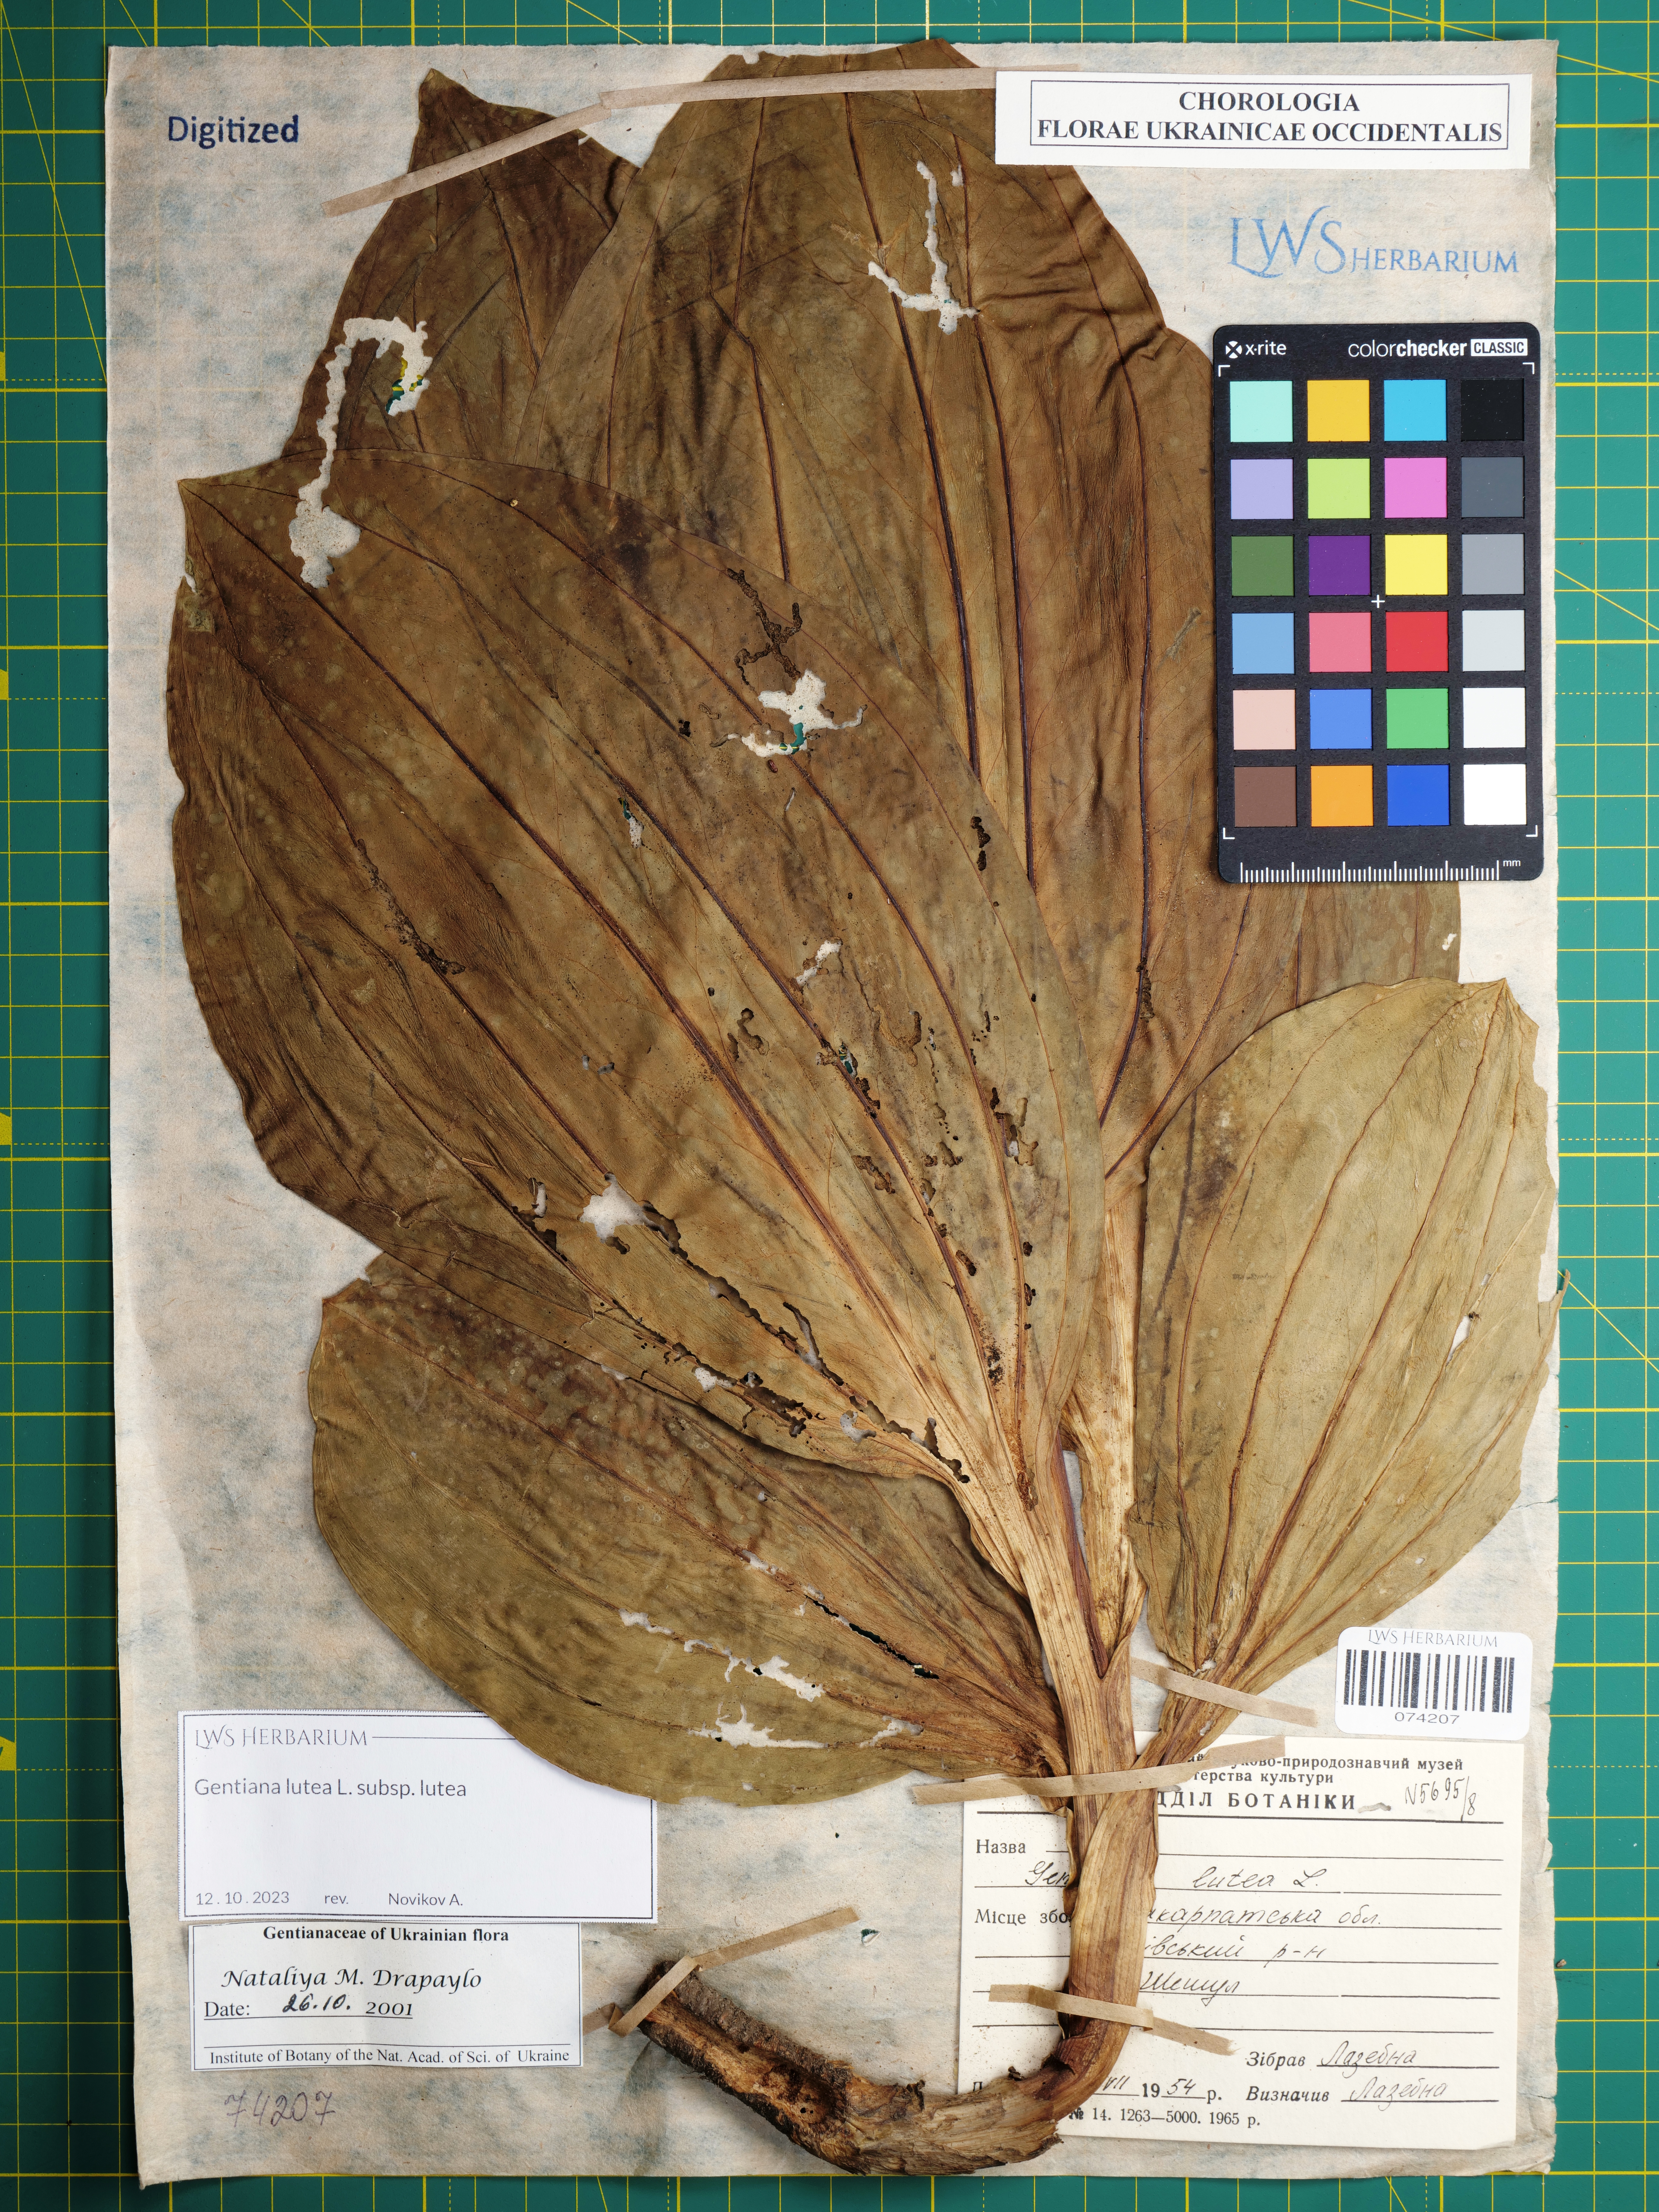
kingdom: Plantae
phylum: Tracheophyta
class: Magnoliopsida
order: Gentianales
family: Gentianaceae
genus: Gentiana
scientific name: Gentiana lutea
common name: Great yellow gentian
